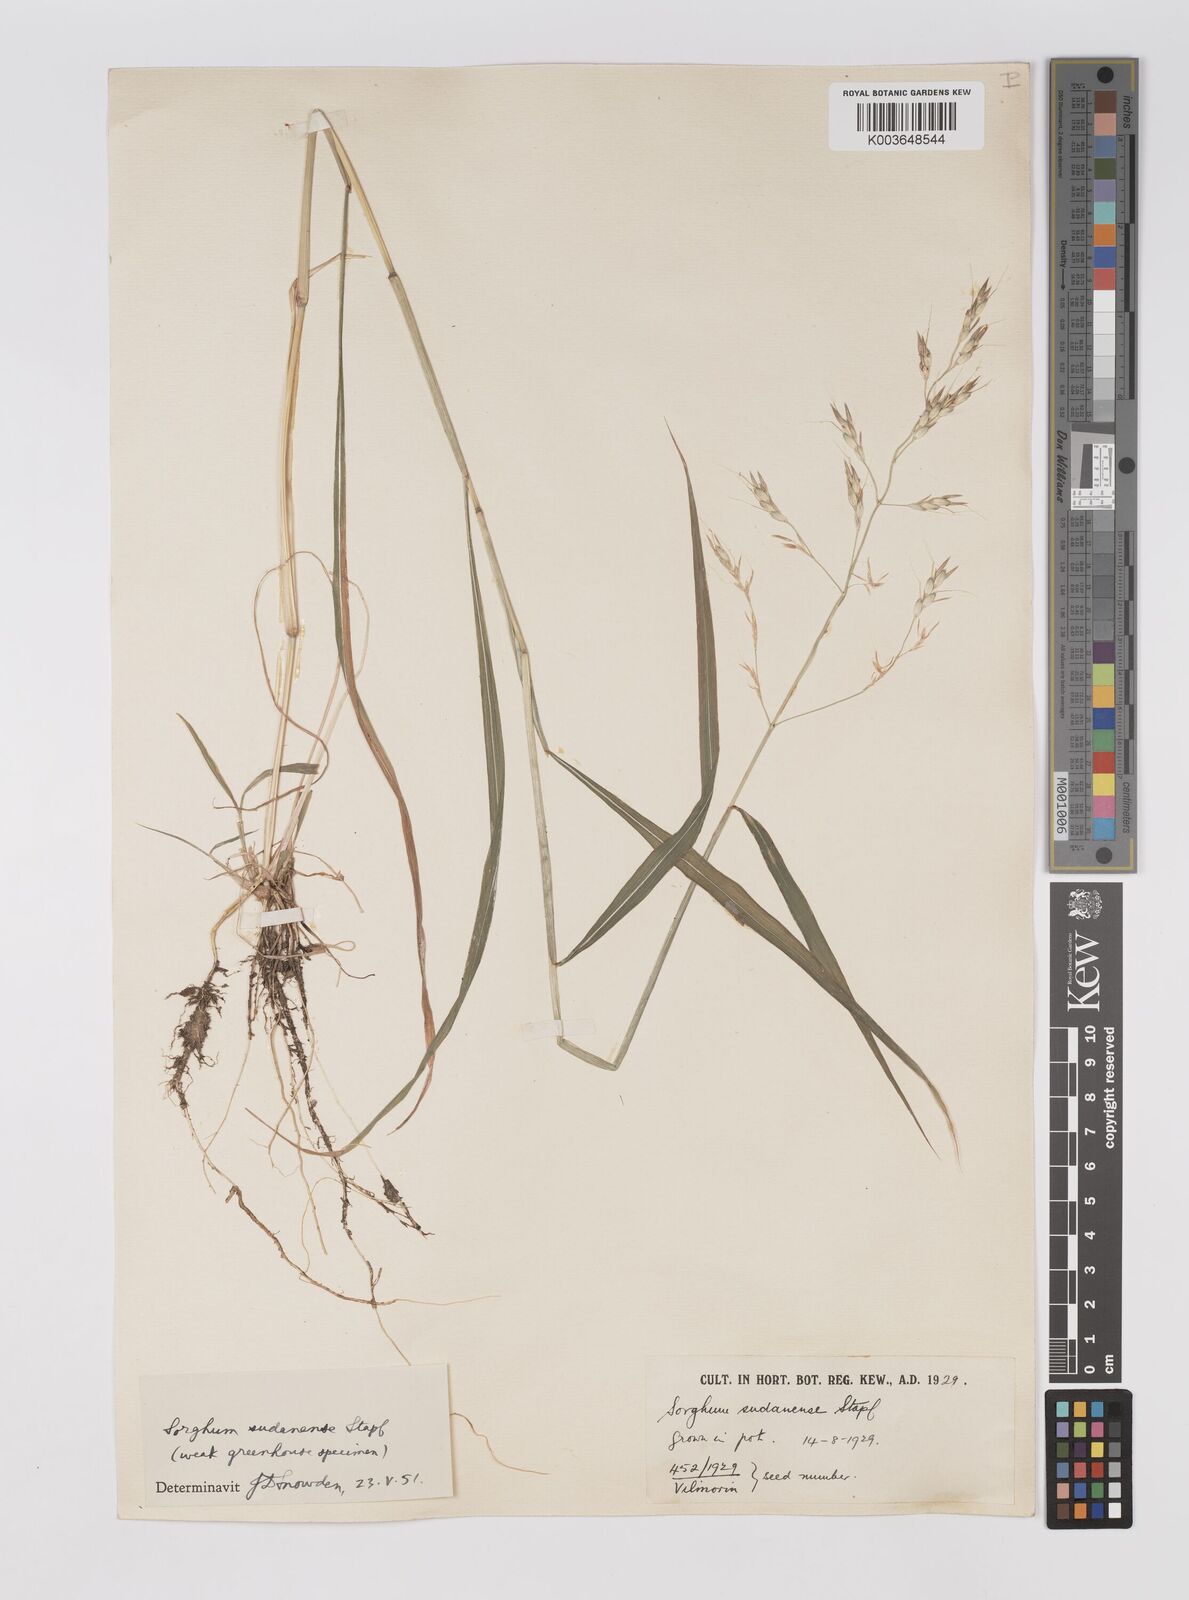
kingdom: Plantae
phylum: Tracheophyta
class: Liliopsida
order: Poales
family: Poaceae
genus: Sorghum
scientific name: Sorghum drummondii
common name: Sudangrass
